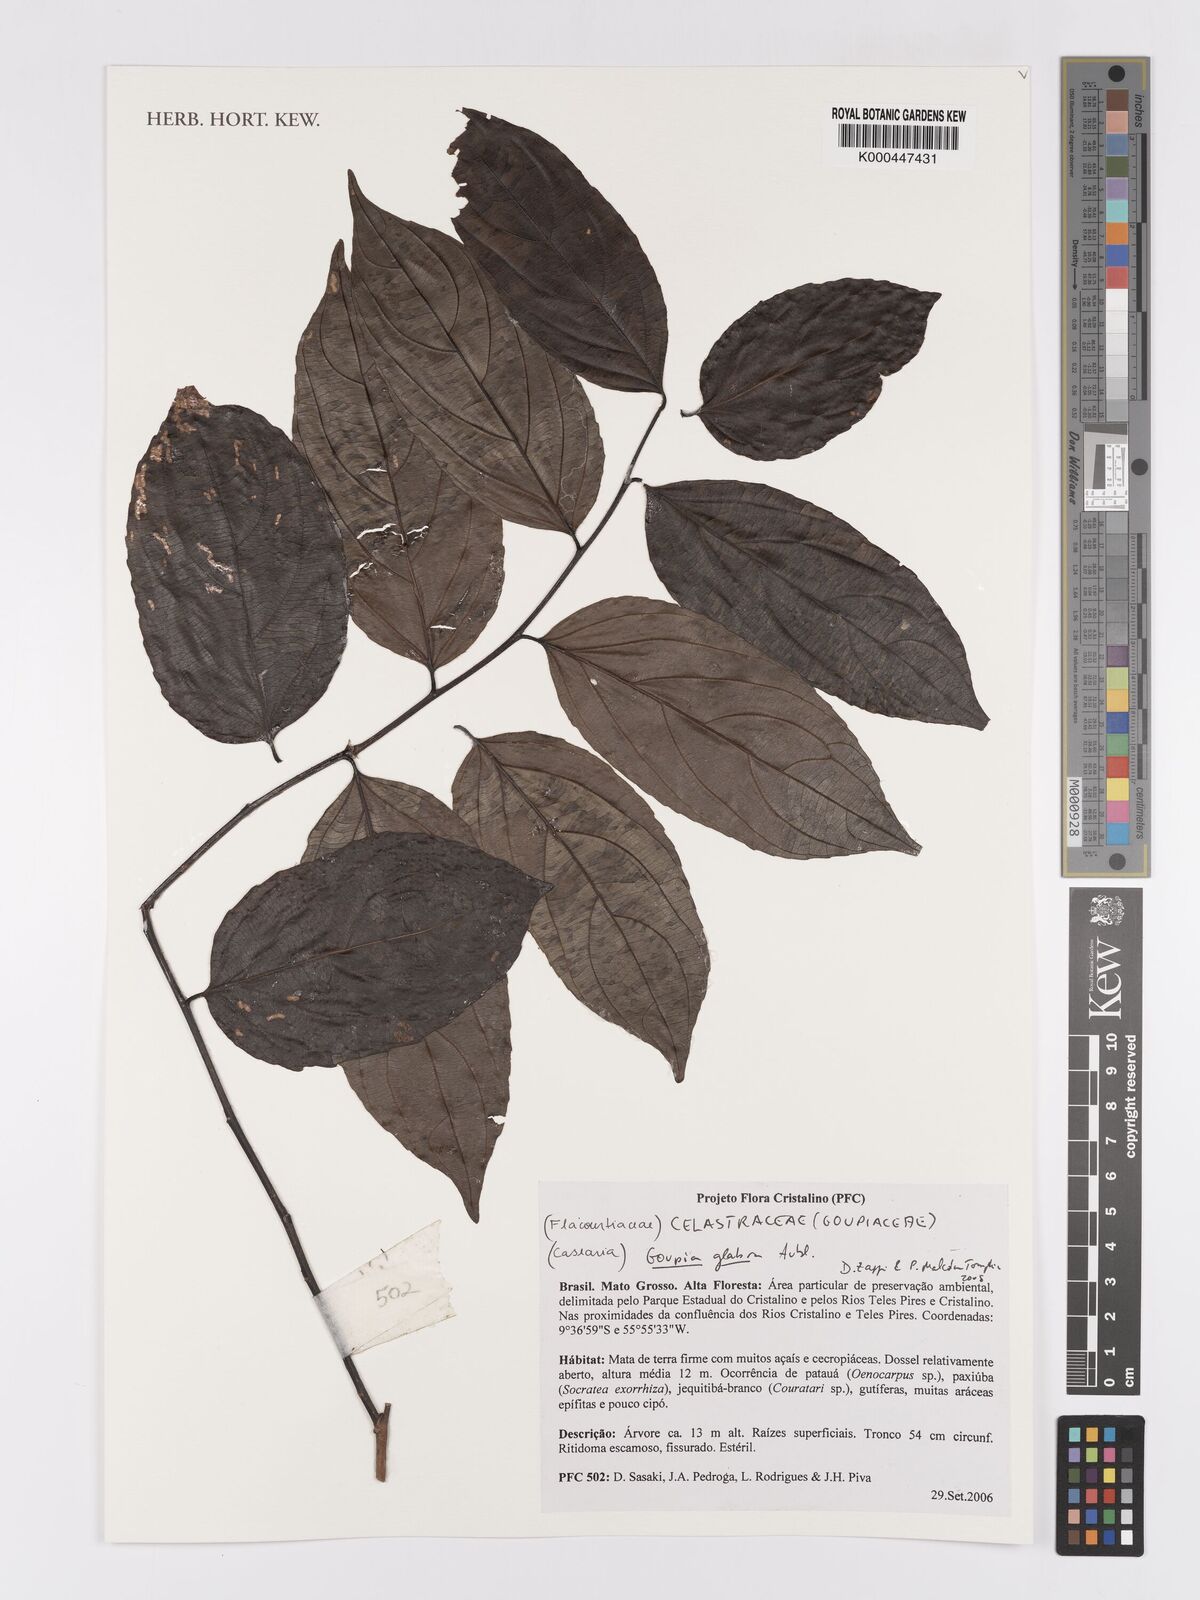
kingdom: Plantae
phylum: Tracheophyta
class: Magnoliopsida
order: Malpighiales
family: Goupiaceae
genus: Goupia
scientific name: Goupia glabra
